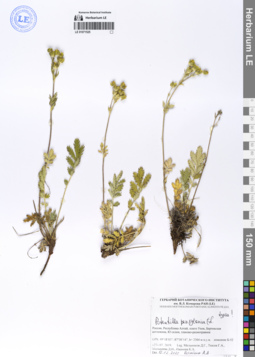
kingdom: Plantae
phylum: Tracheophyta
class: Magnoliopsida
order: Rosales
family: Rosaceae
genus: Potentilla
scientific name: Potentilla pensylvanica
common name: Pennsylvania cinquefoil
